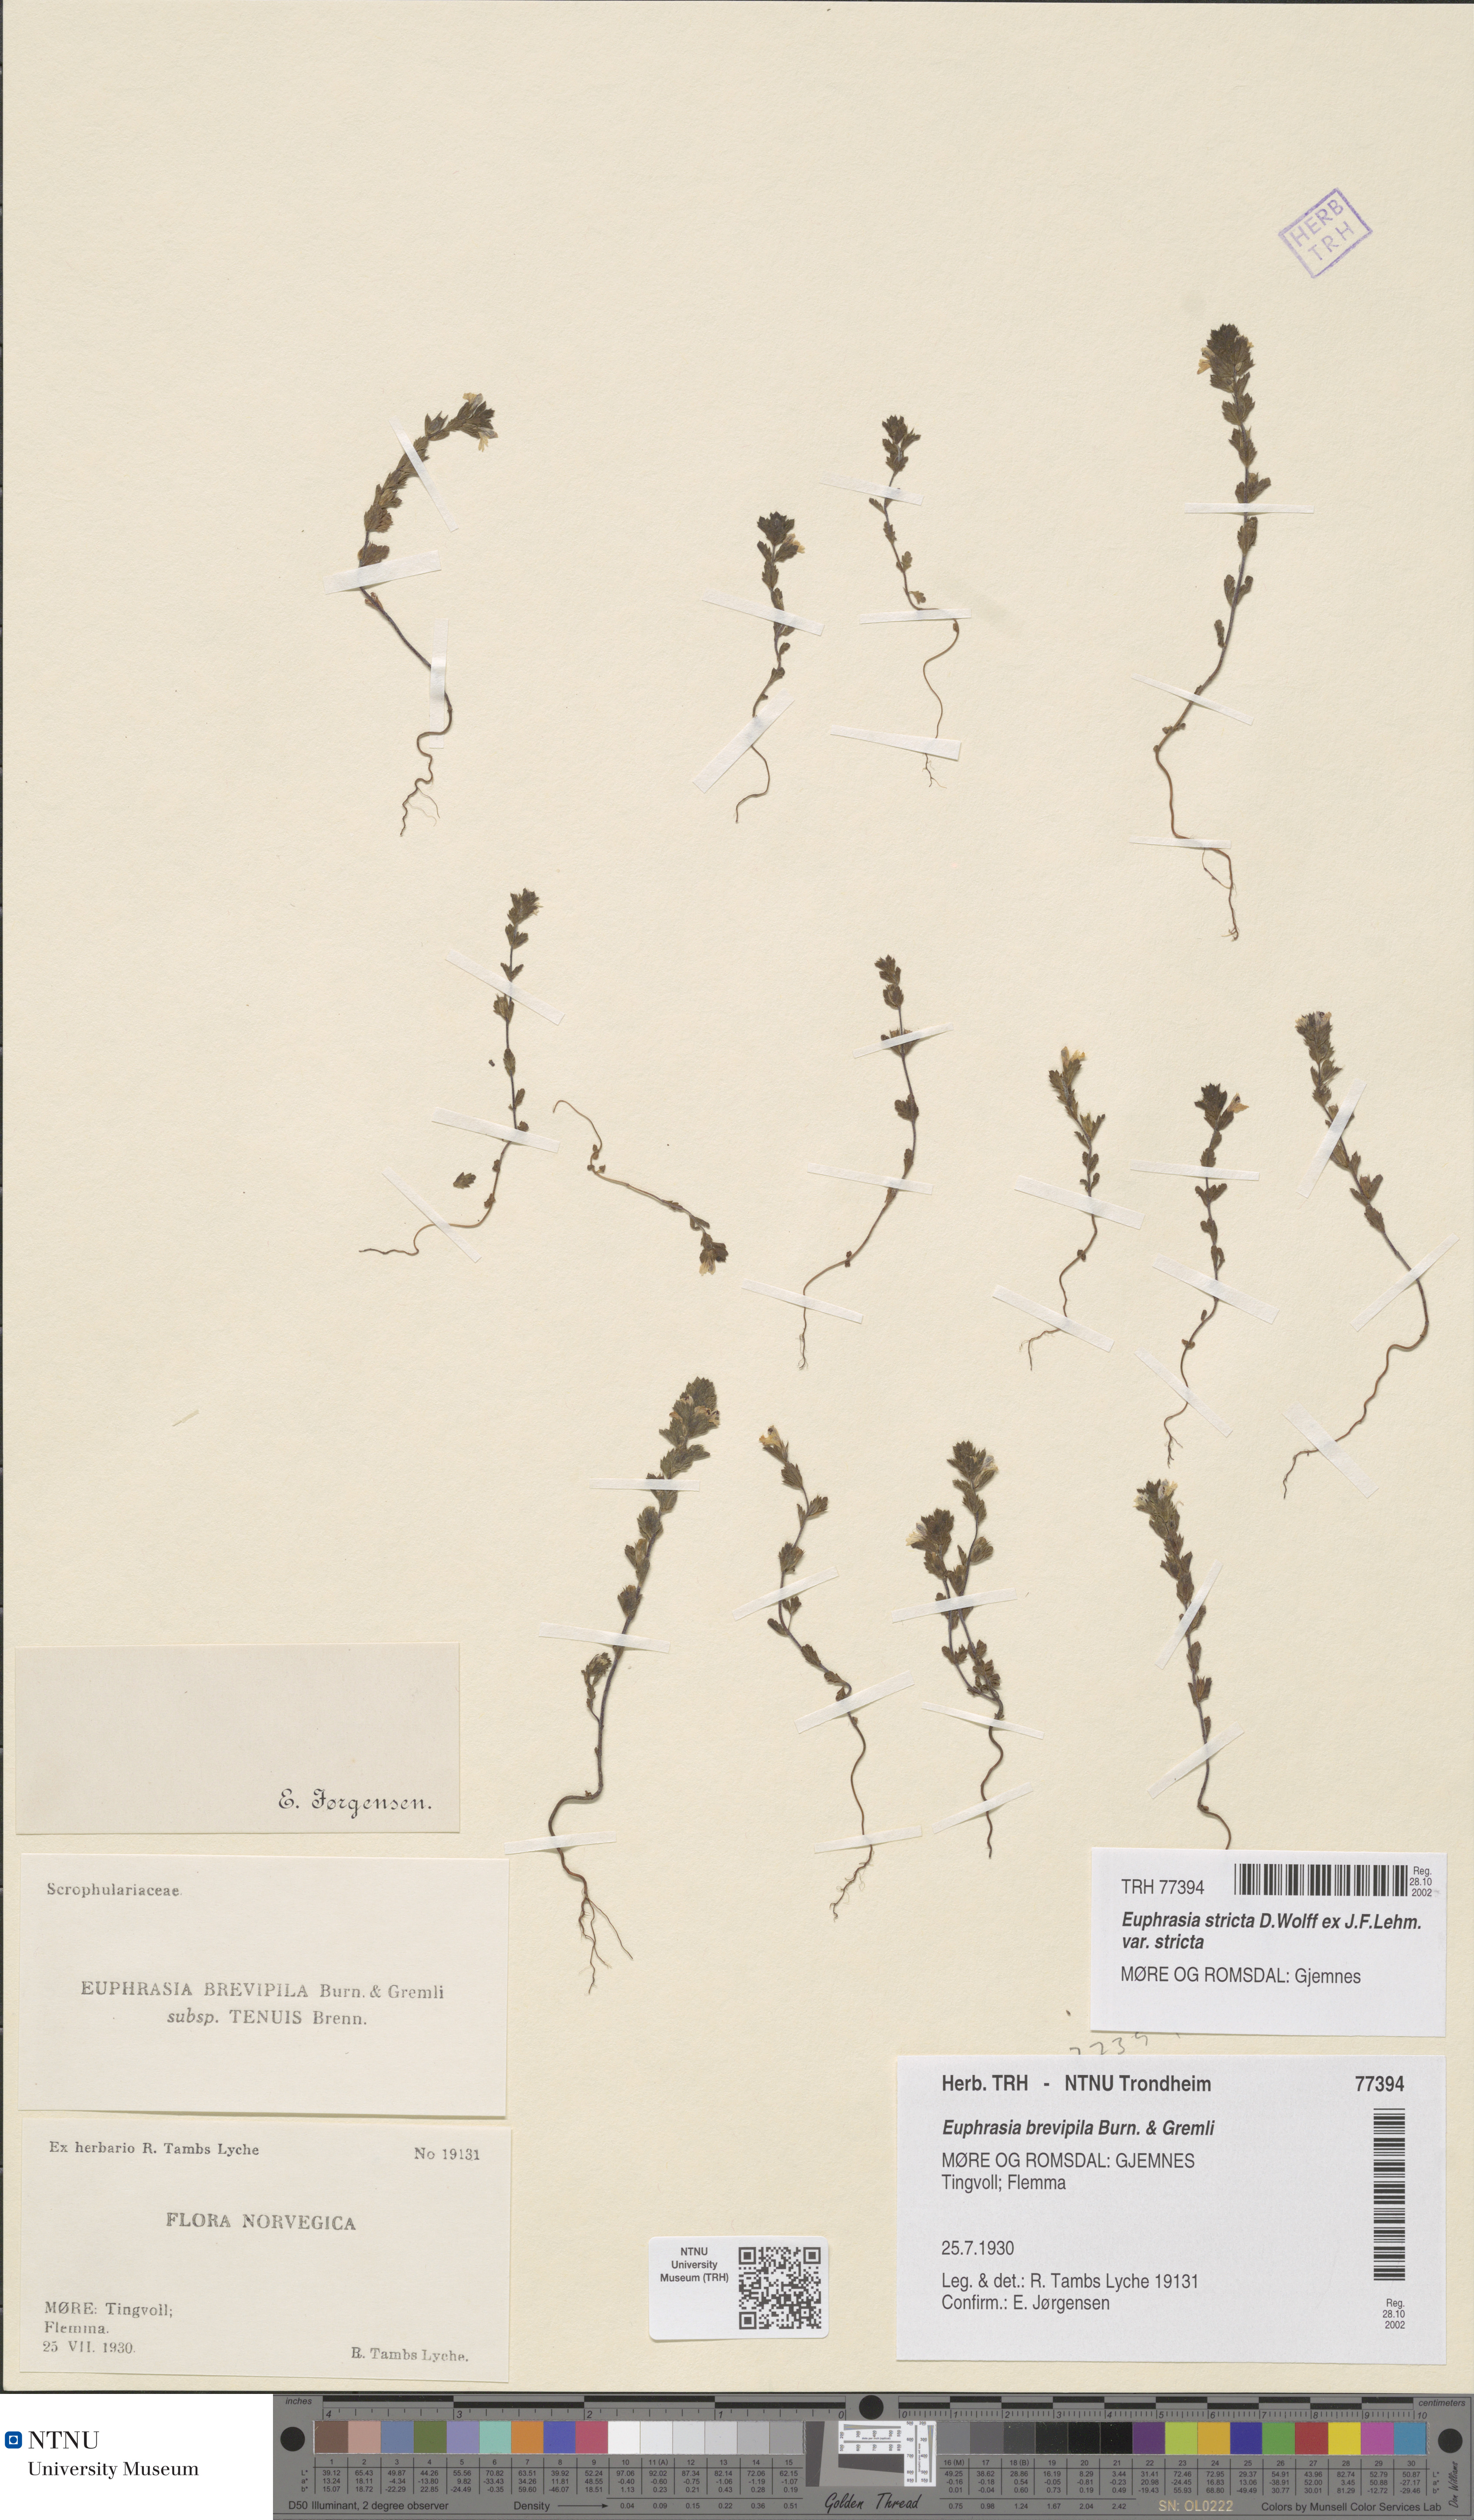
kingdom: Plantae
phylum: Tracheophyta
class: Magnoliopsida
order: Lamiales
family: Orobanchaceae
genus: Euphrasia
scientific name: Euphrasia vernalis
